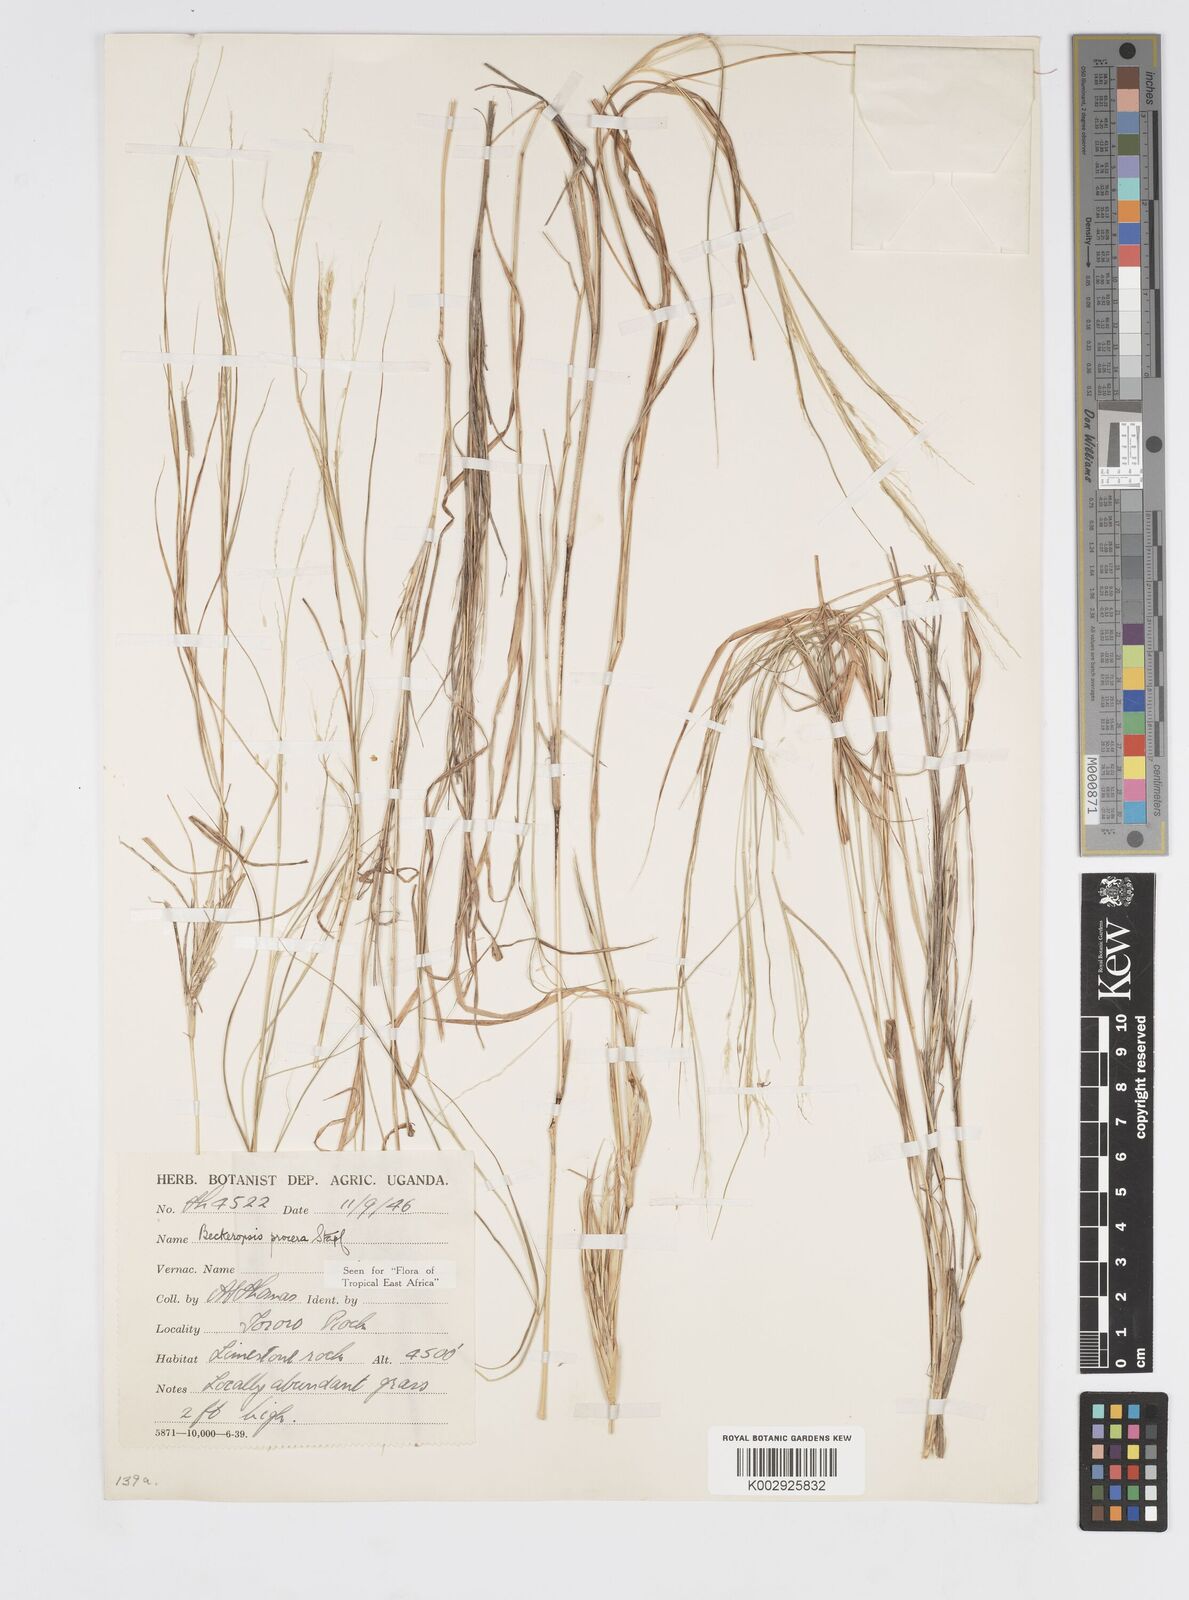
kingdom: Plantae
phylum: Tracheophyta
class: Liliopsida
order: Poales
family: Poaceae
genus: Cenchrus
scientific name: Cenchrus procerus
